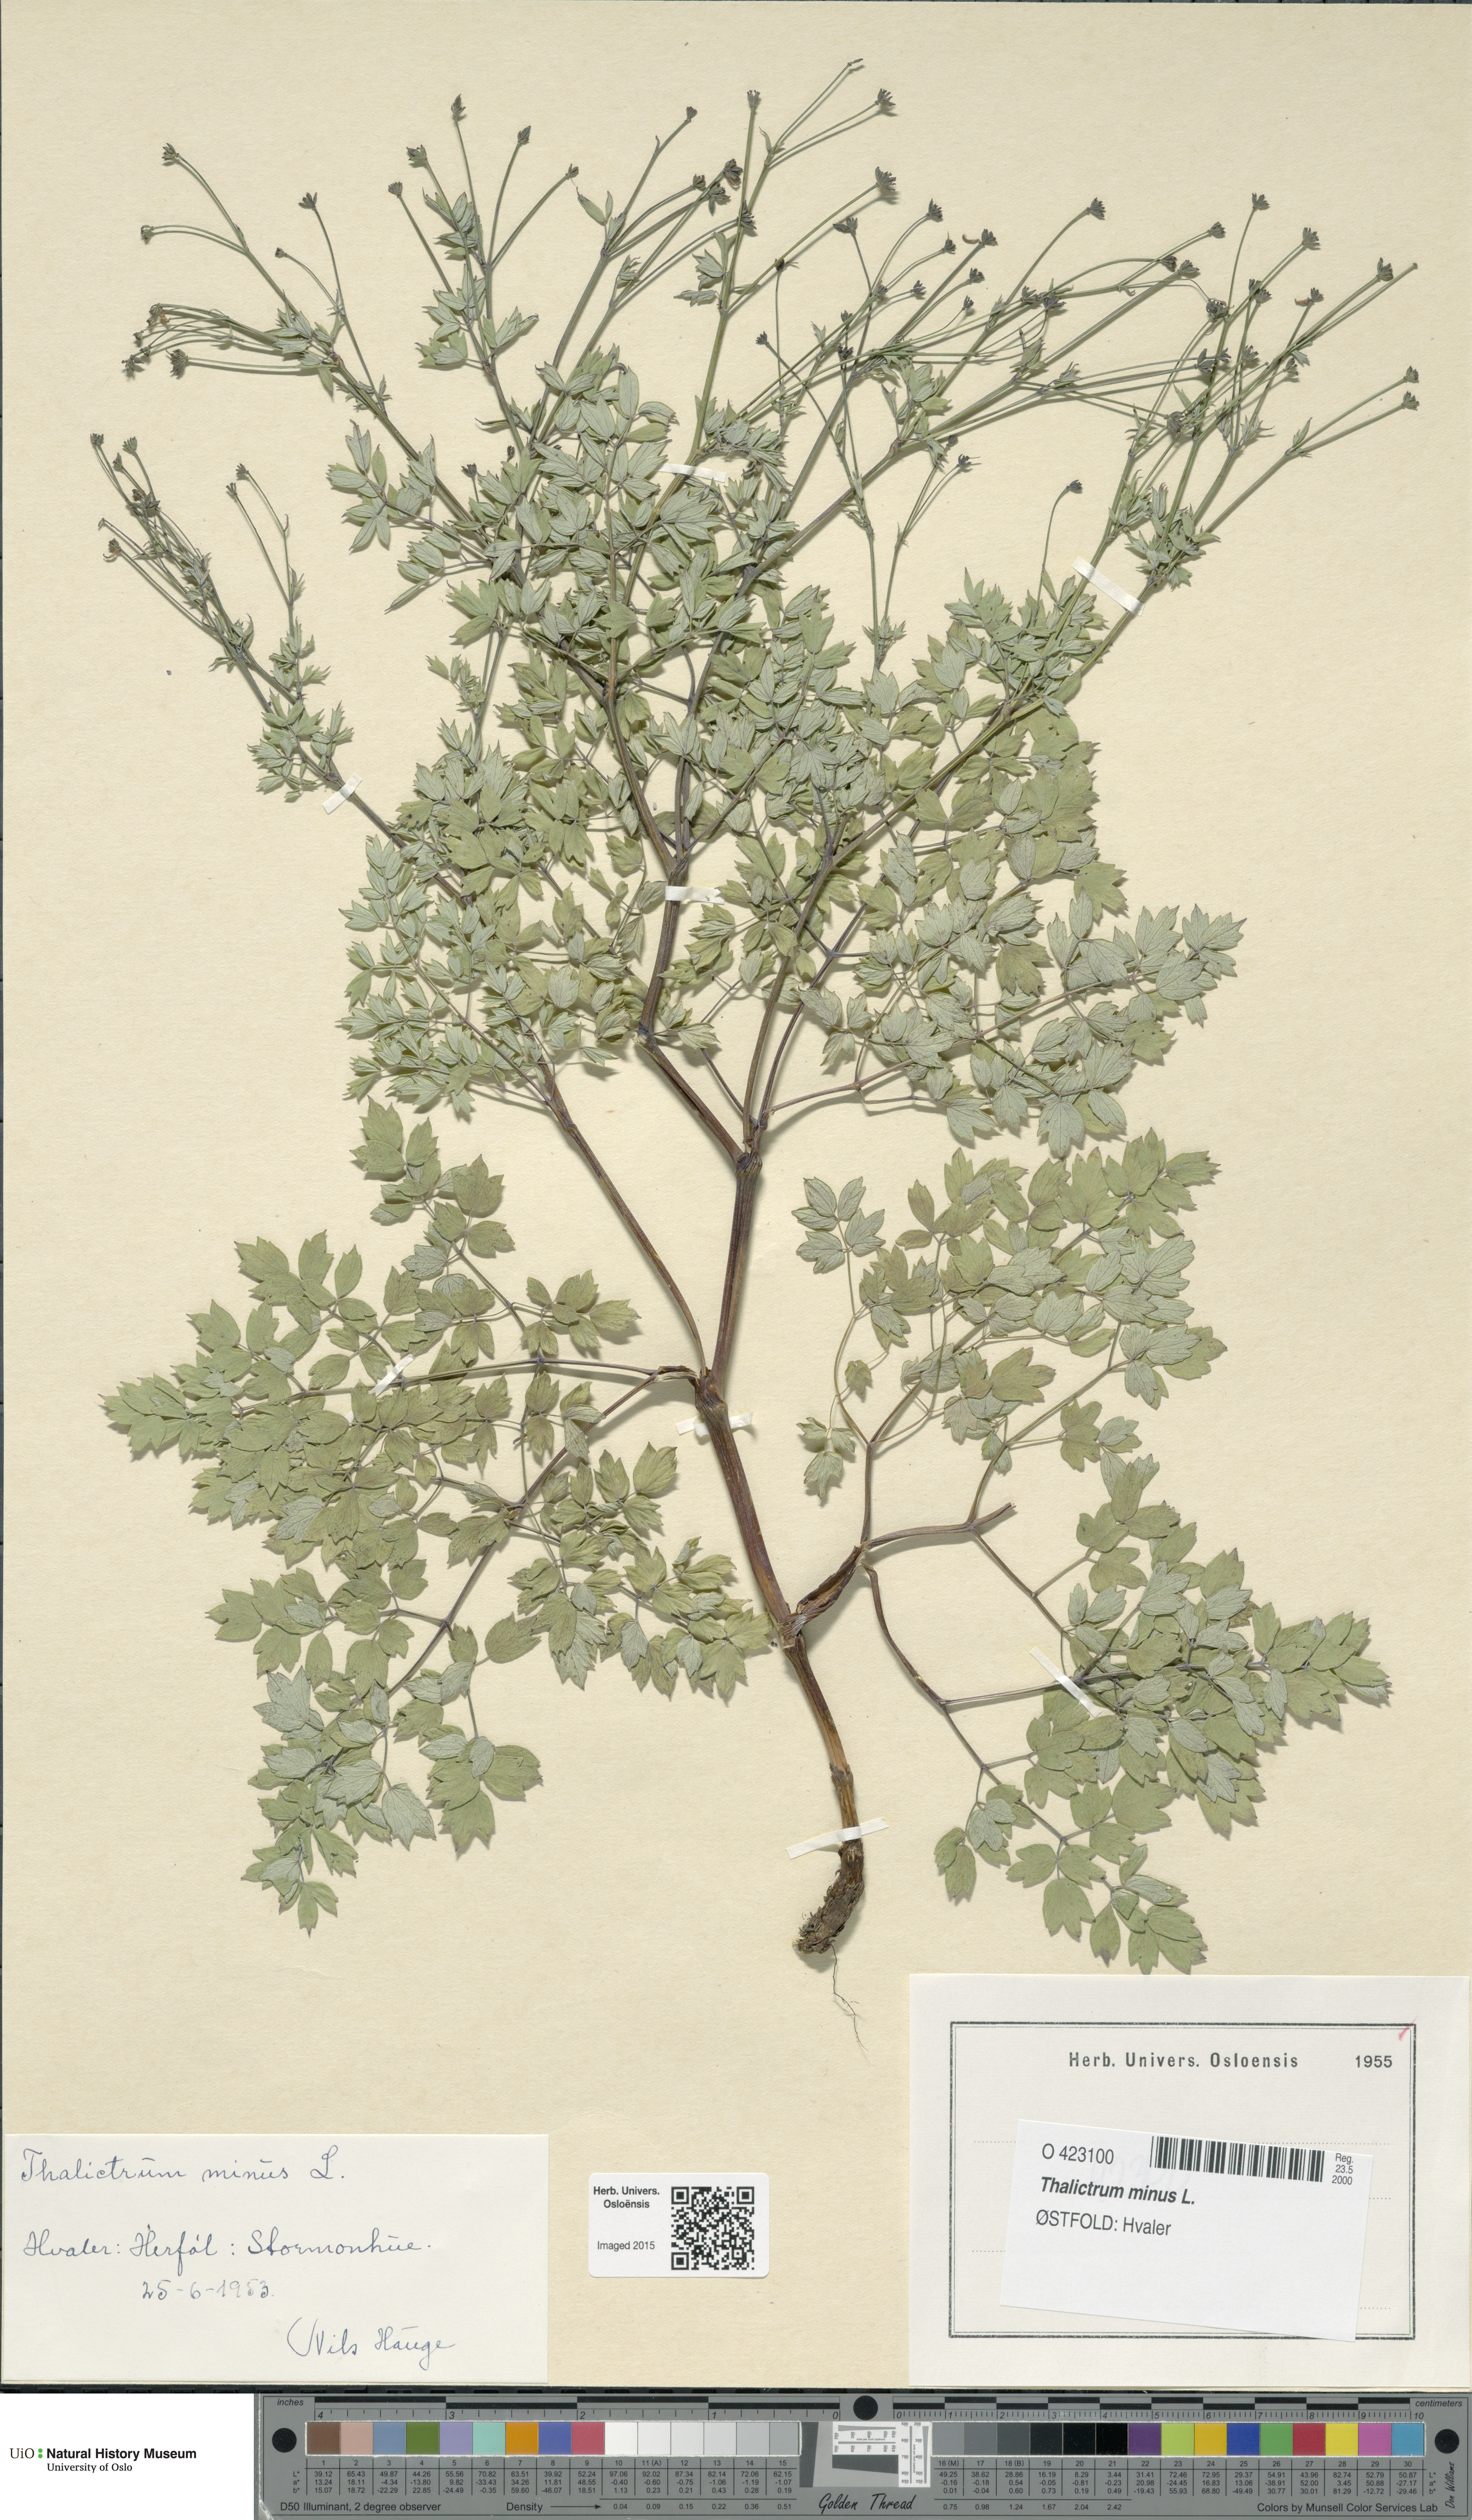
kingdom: Plantae
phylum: Tracheophyta
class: Magnoliopsida
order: Ranunculales
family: Ranunculaceae
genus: Thalictrum
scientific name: Thalictrum minus
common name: Lesser meadow-rue
